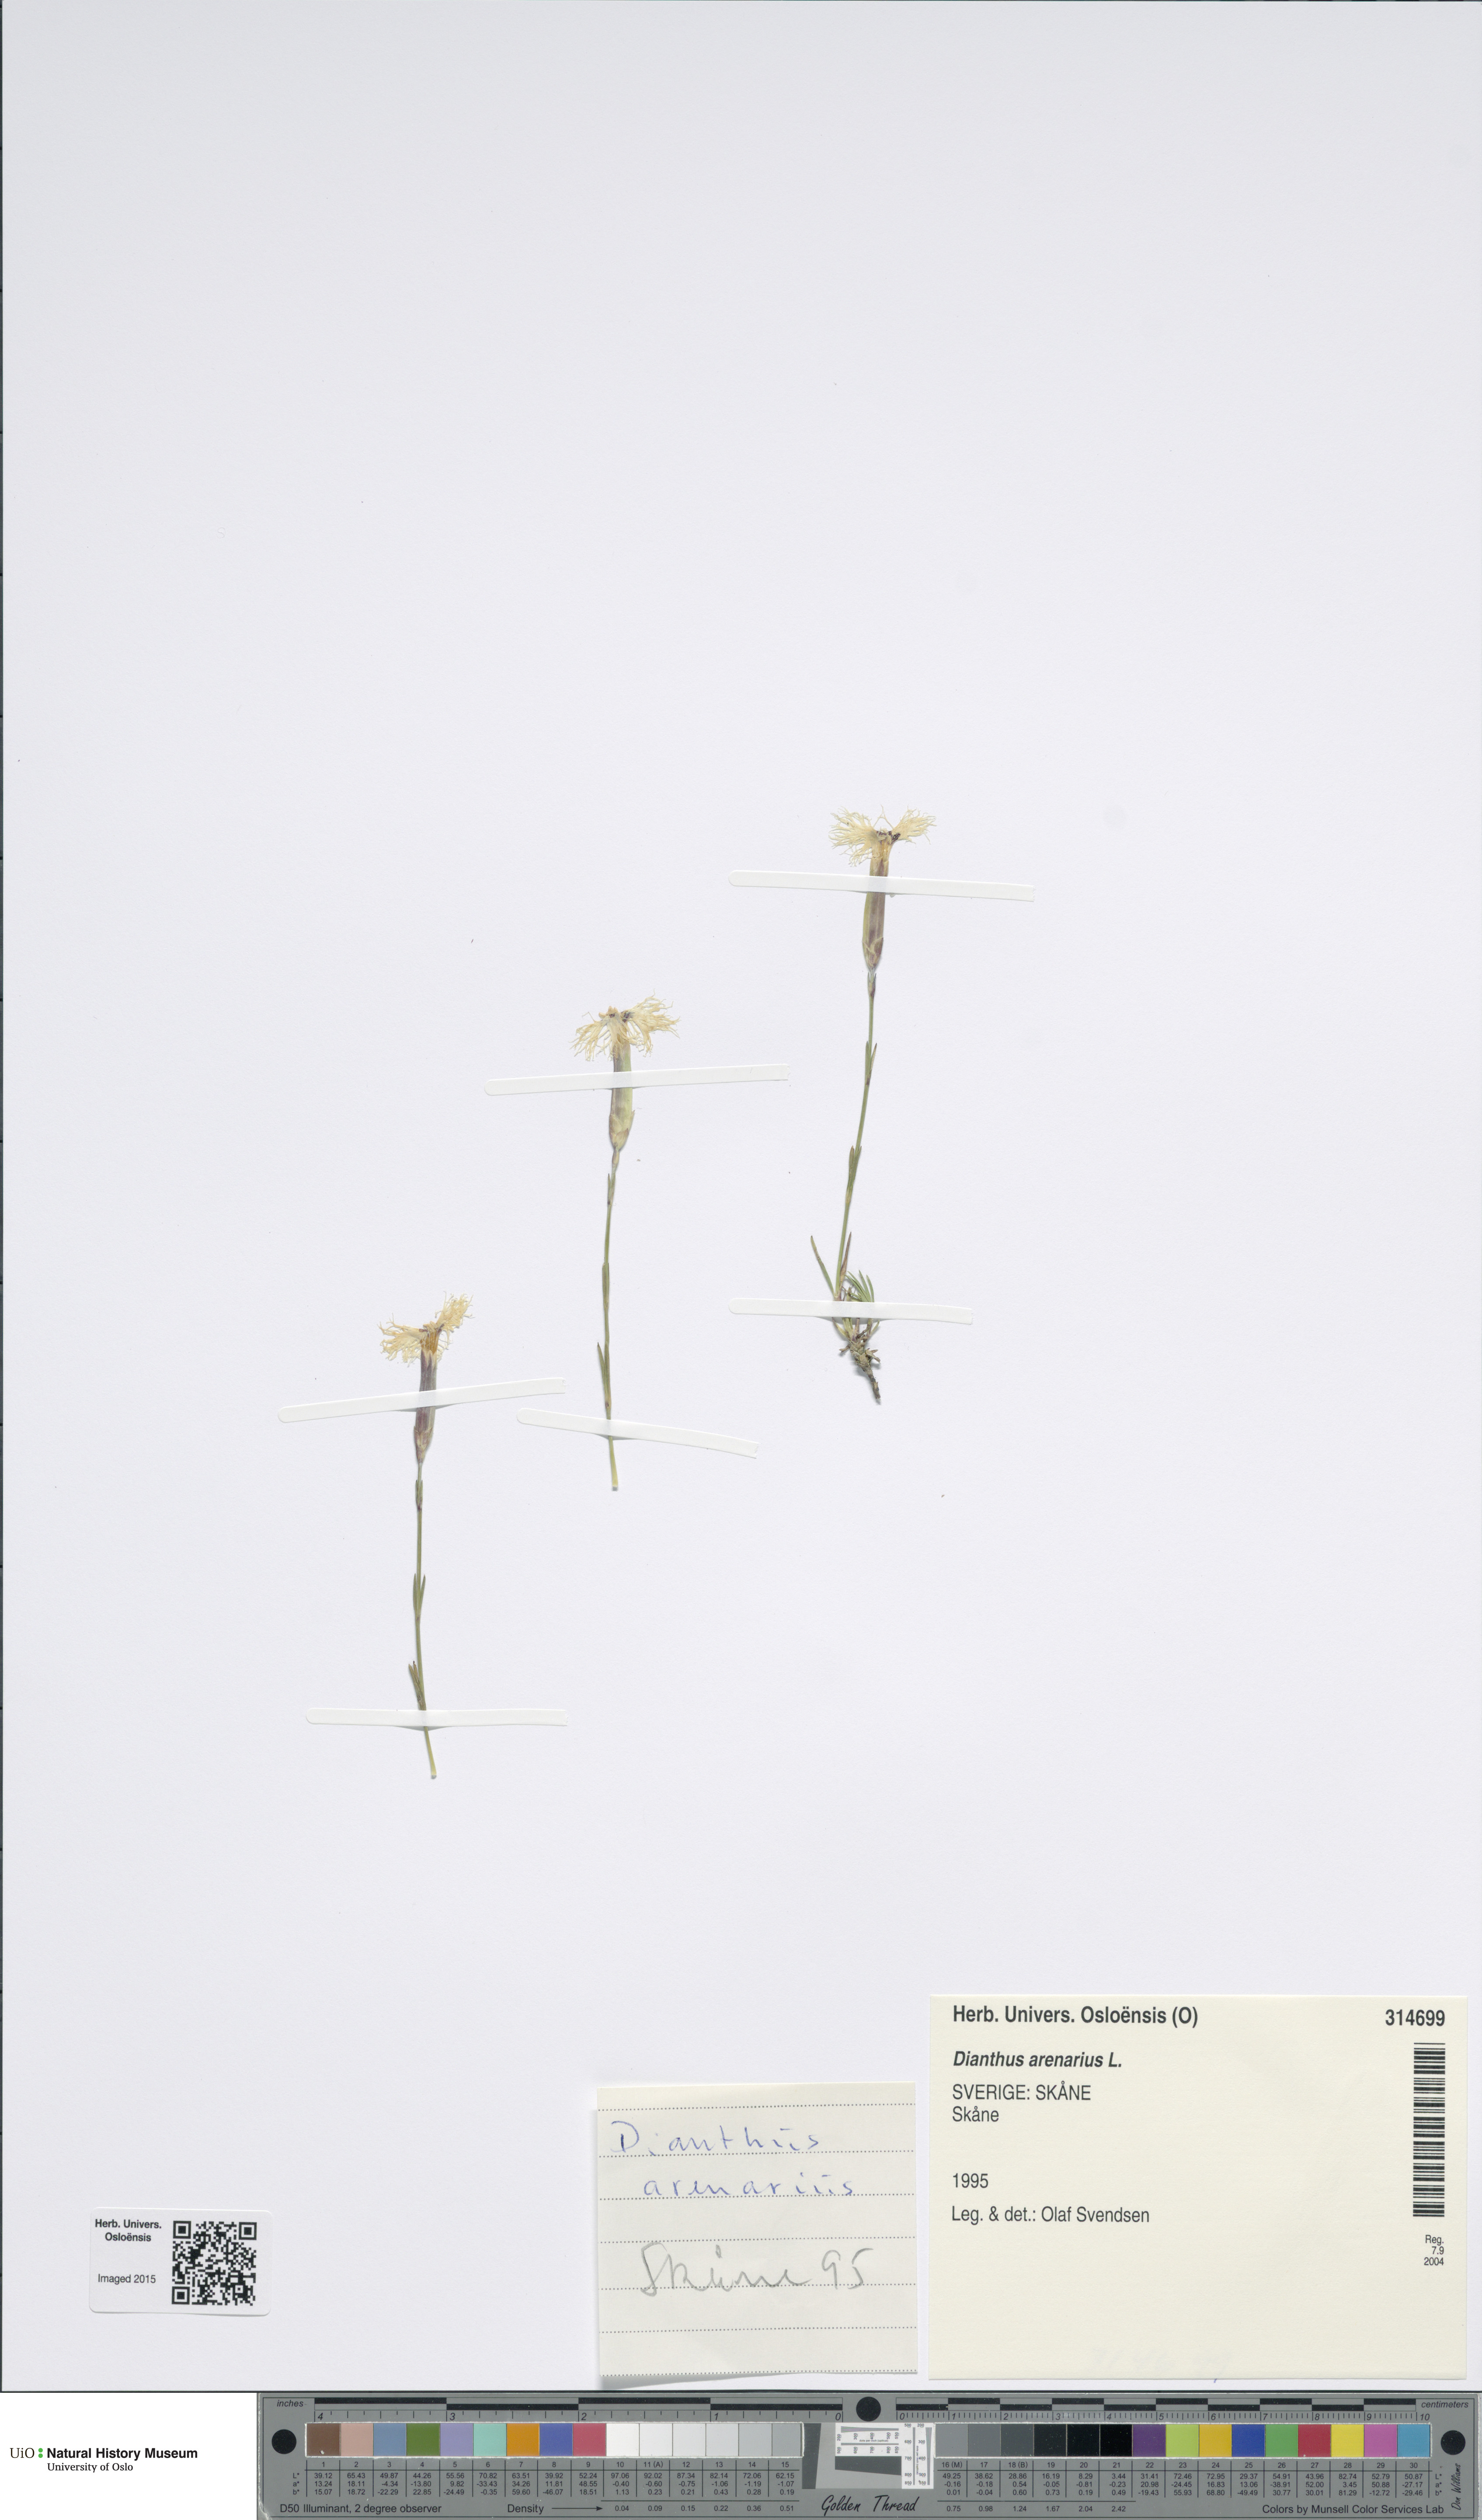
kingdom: Plantae
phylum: Tracheophyta
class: Magnoliopsida
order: Caryophyllales
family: Caryophyllaceae
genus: Dianthus
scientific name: Dianthus arenarius
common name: Stone pink
